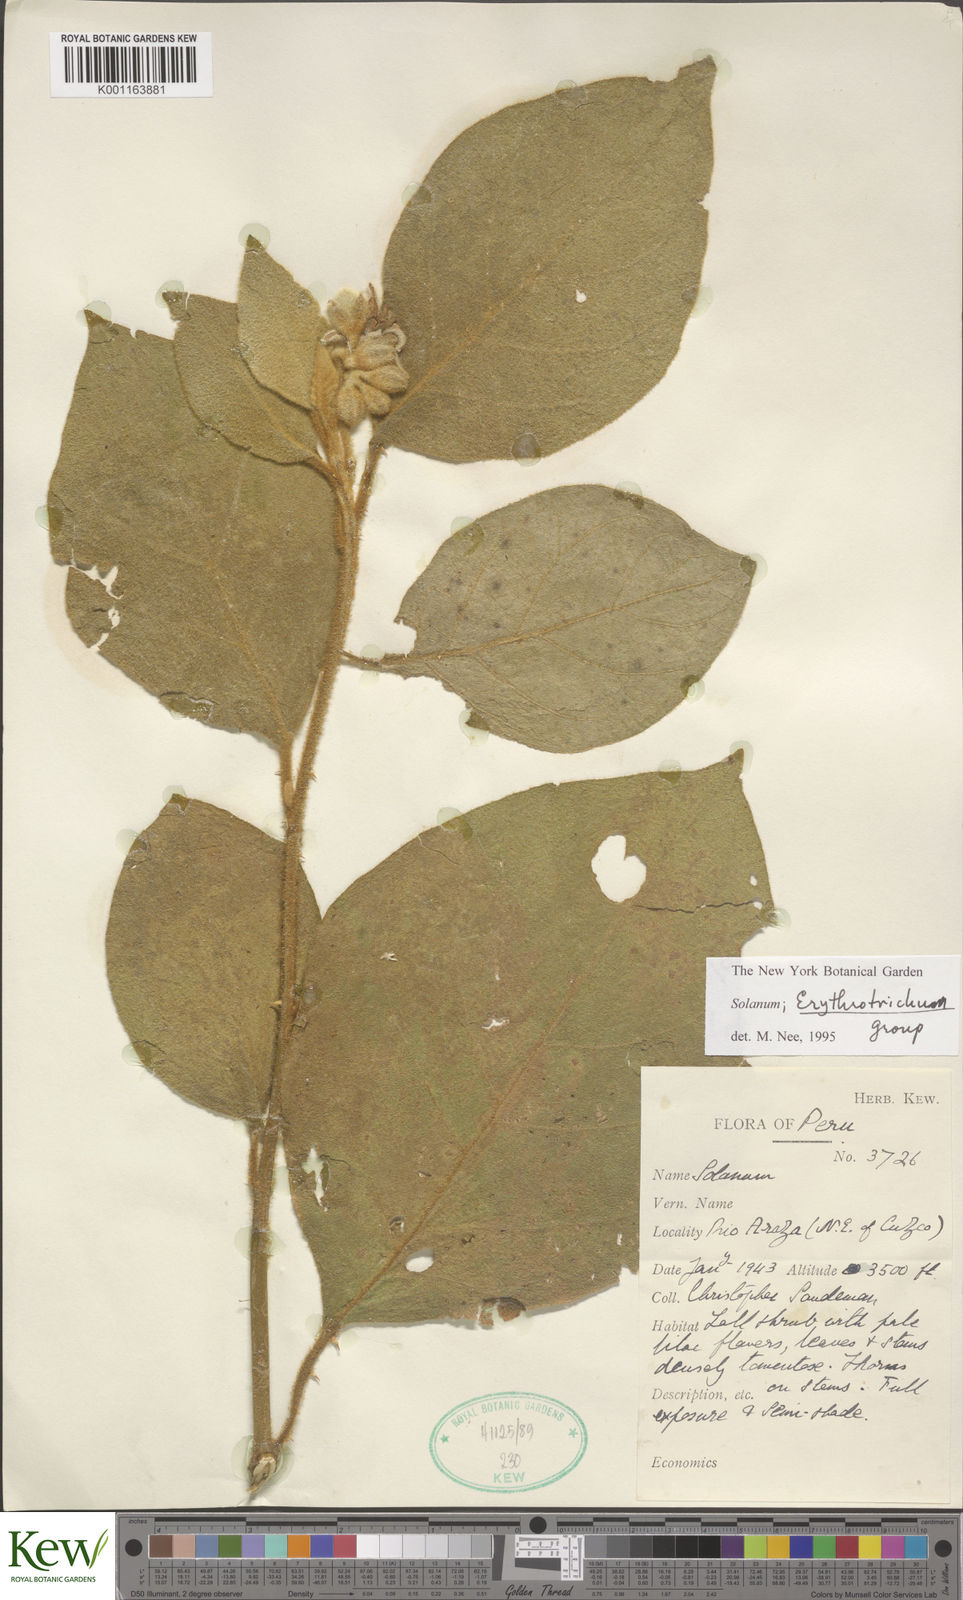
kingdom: Plantae
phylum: Tracheophyta
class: Magnoliopsida
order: Solanales
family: Solanaceae
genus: Solanum
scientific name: Solanum erythrotrichum
